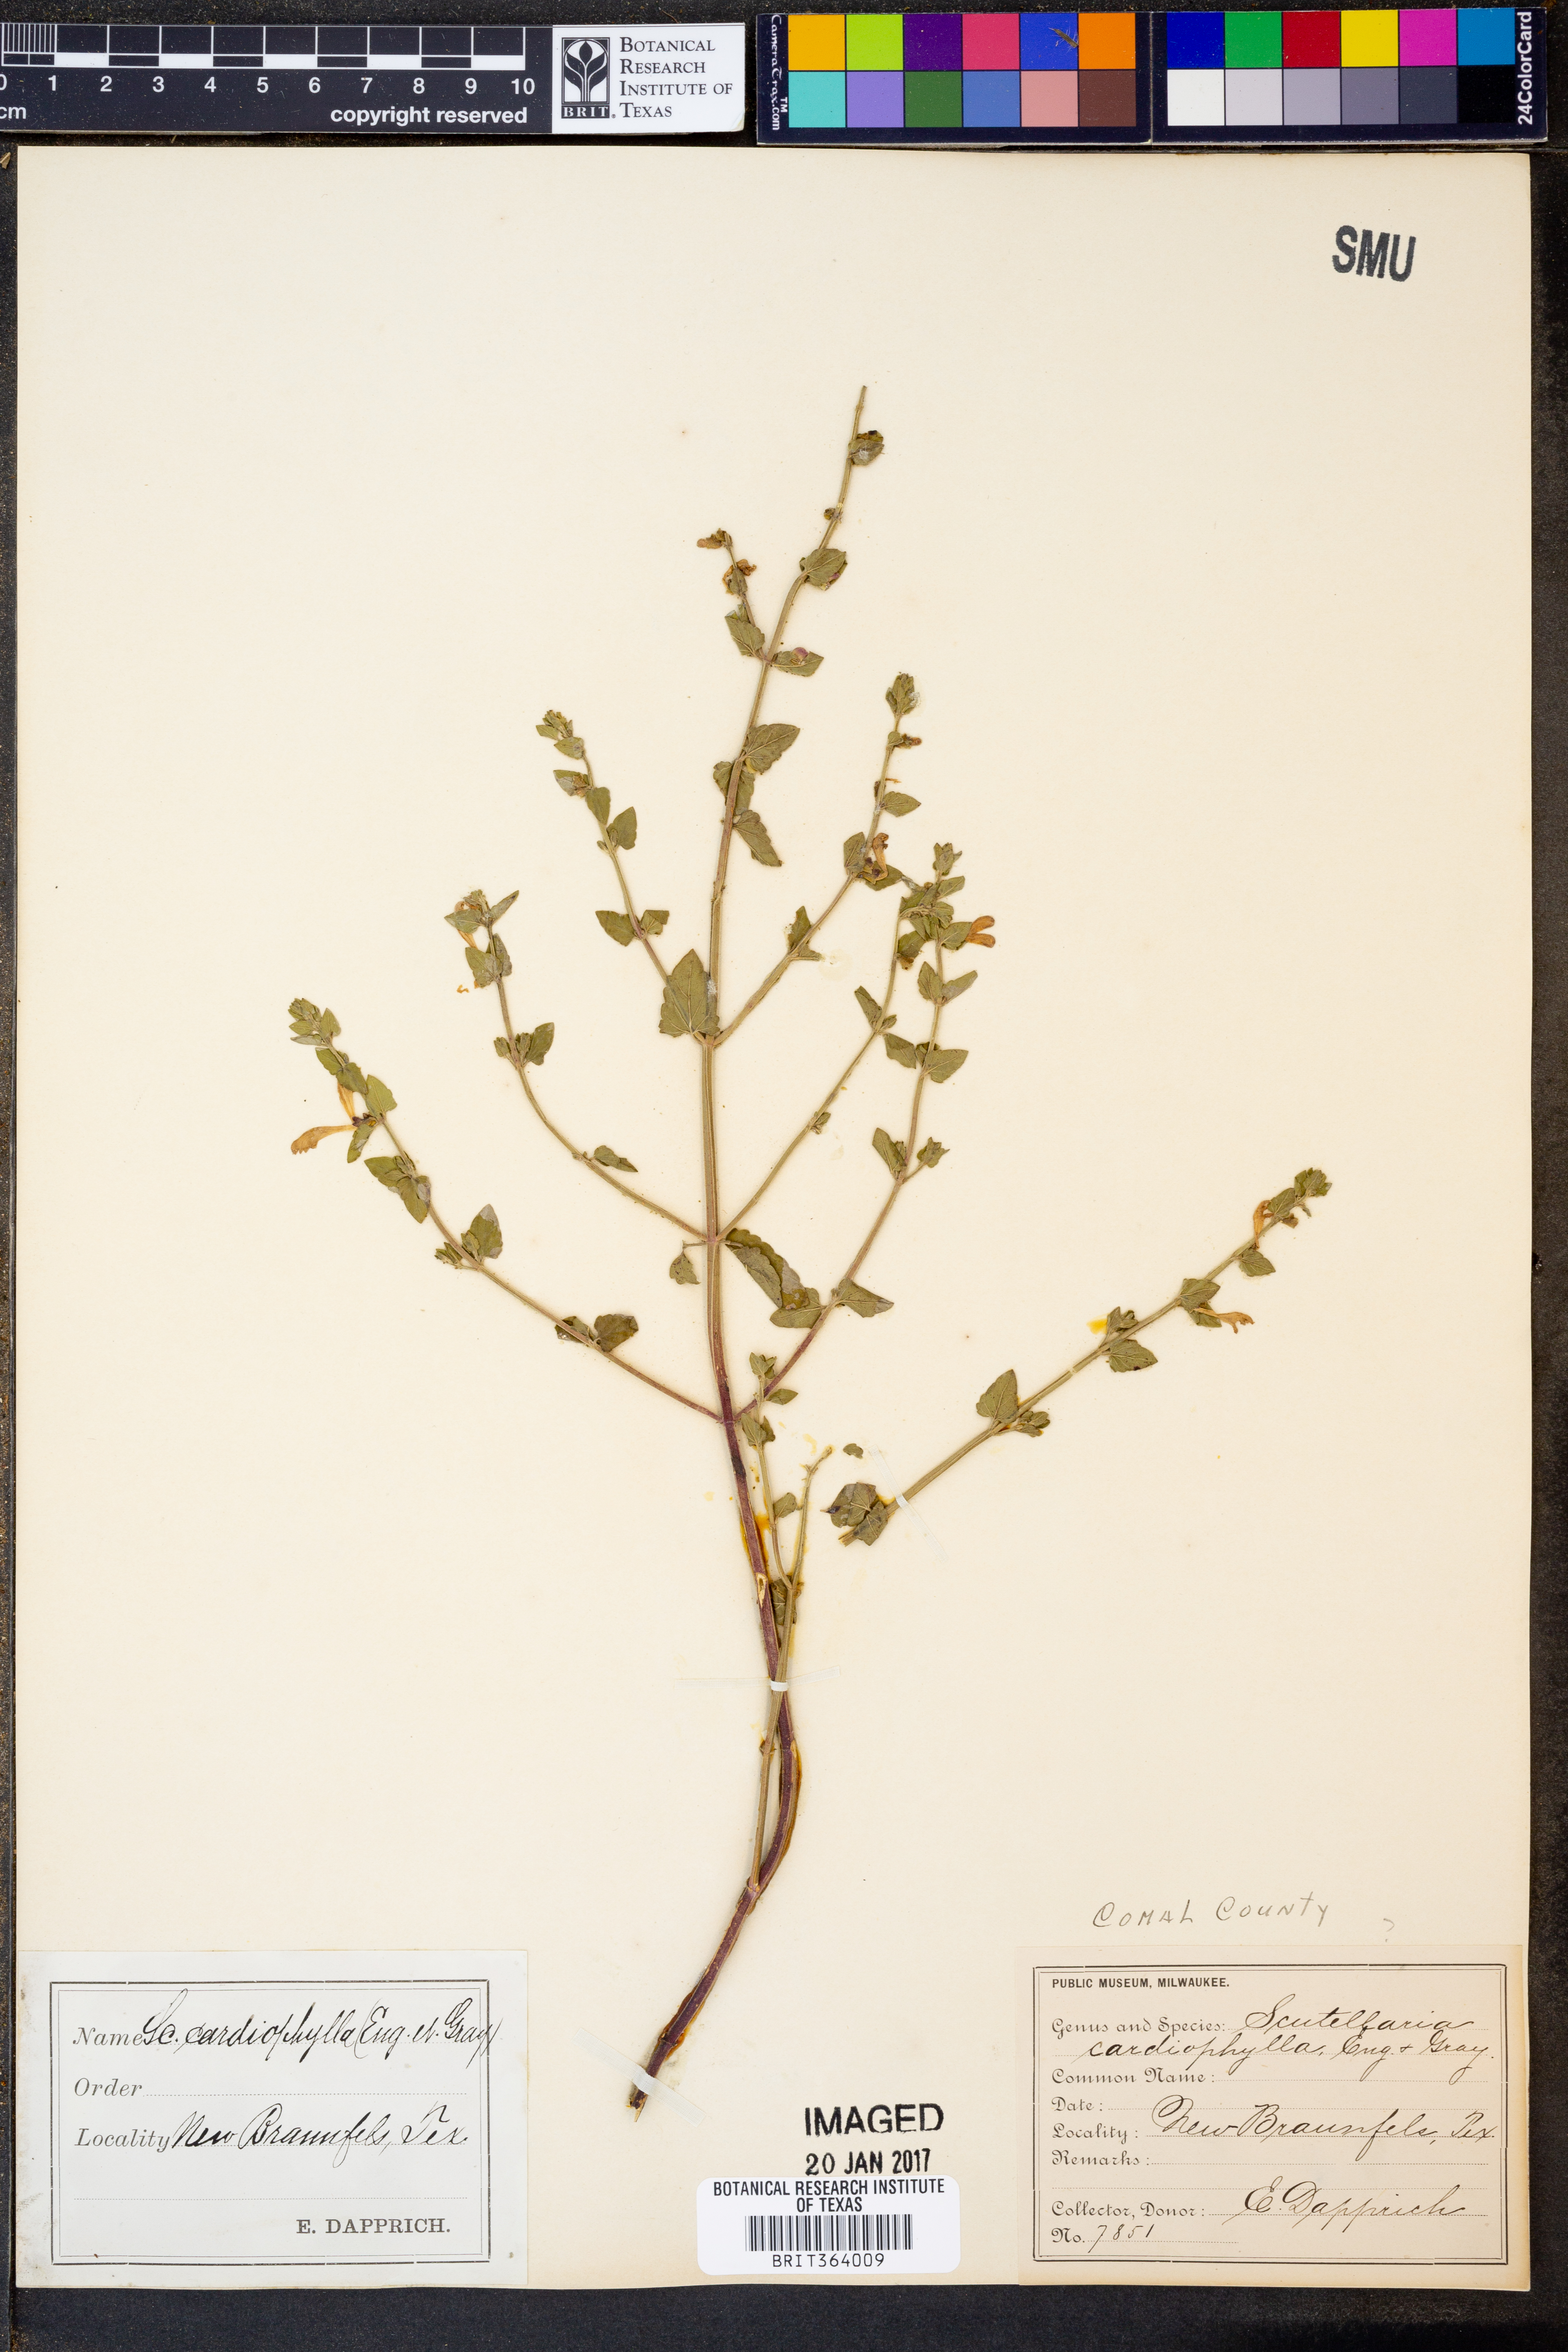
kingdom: Plantae
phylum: Tracheophyta
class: Magnoliopsida
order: Lamiales
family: Lamiaceae
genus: Scutellaria
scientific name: Scutellaria cardiophylla
